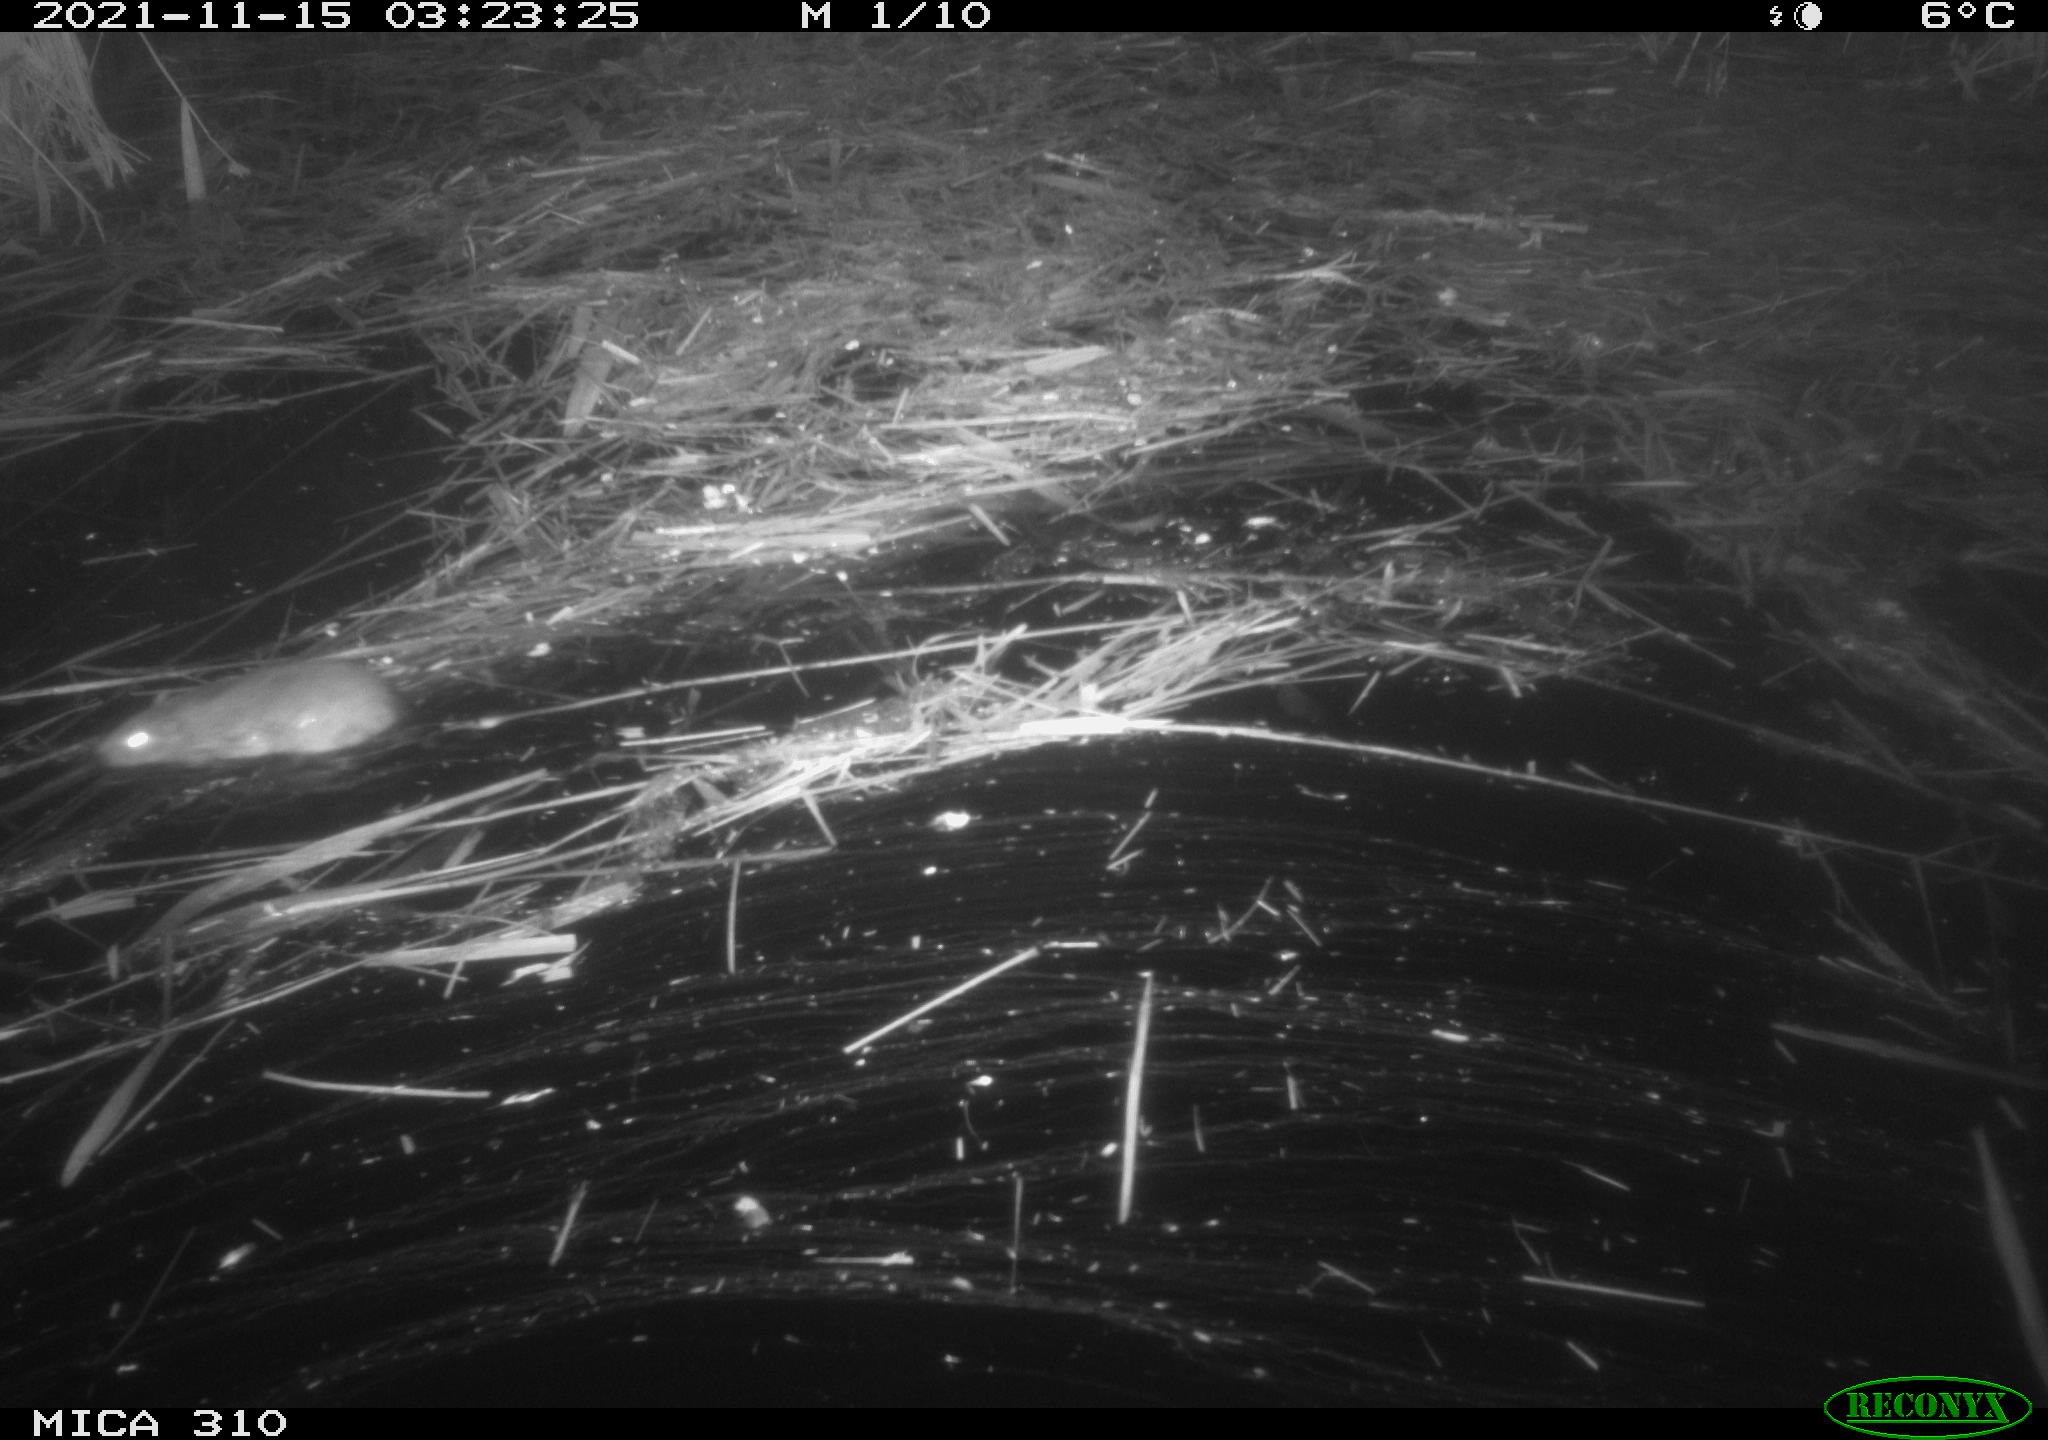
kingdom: Animalia
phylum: Chordata
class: Mammalia
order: Rodentia
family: Muridae
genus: Rattus
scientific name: Rattus norvegicus
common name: Brown rat
